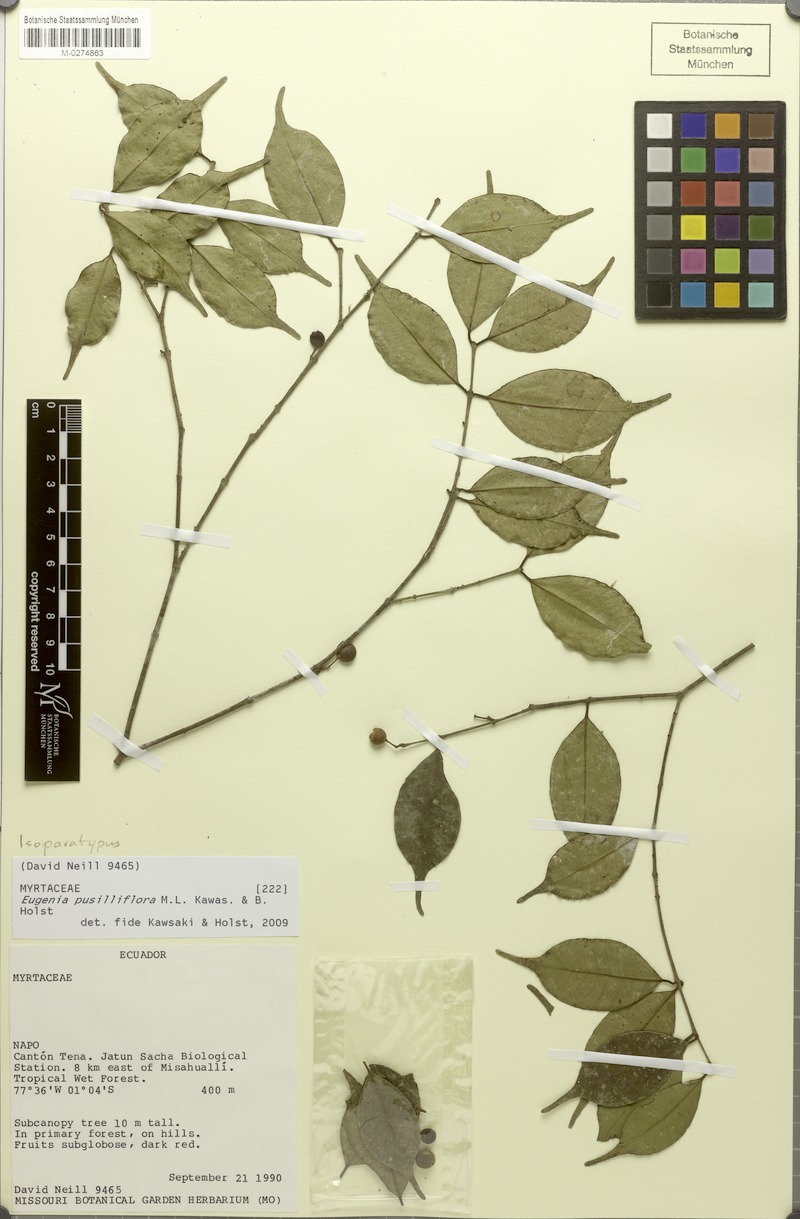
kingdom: Plantae
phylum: Tracheophyta
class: Magnoliopsida
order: Myrtales
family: Myrtaceae
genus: Eugenia
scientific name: Eugenia pusilliflora
